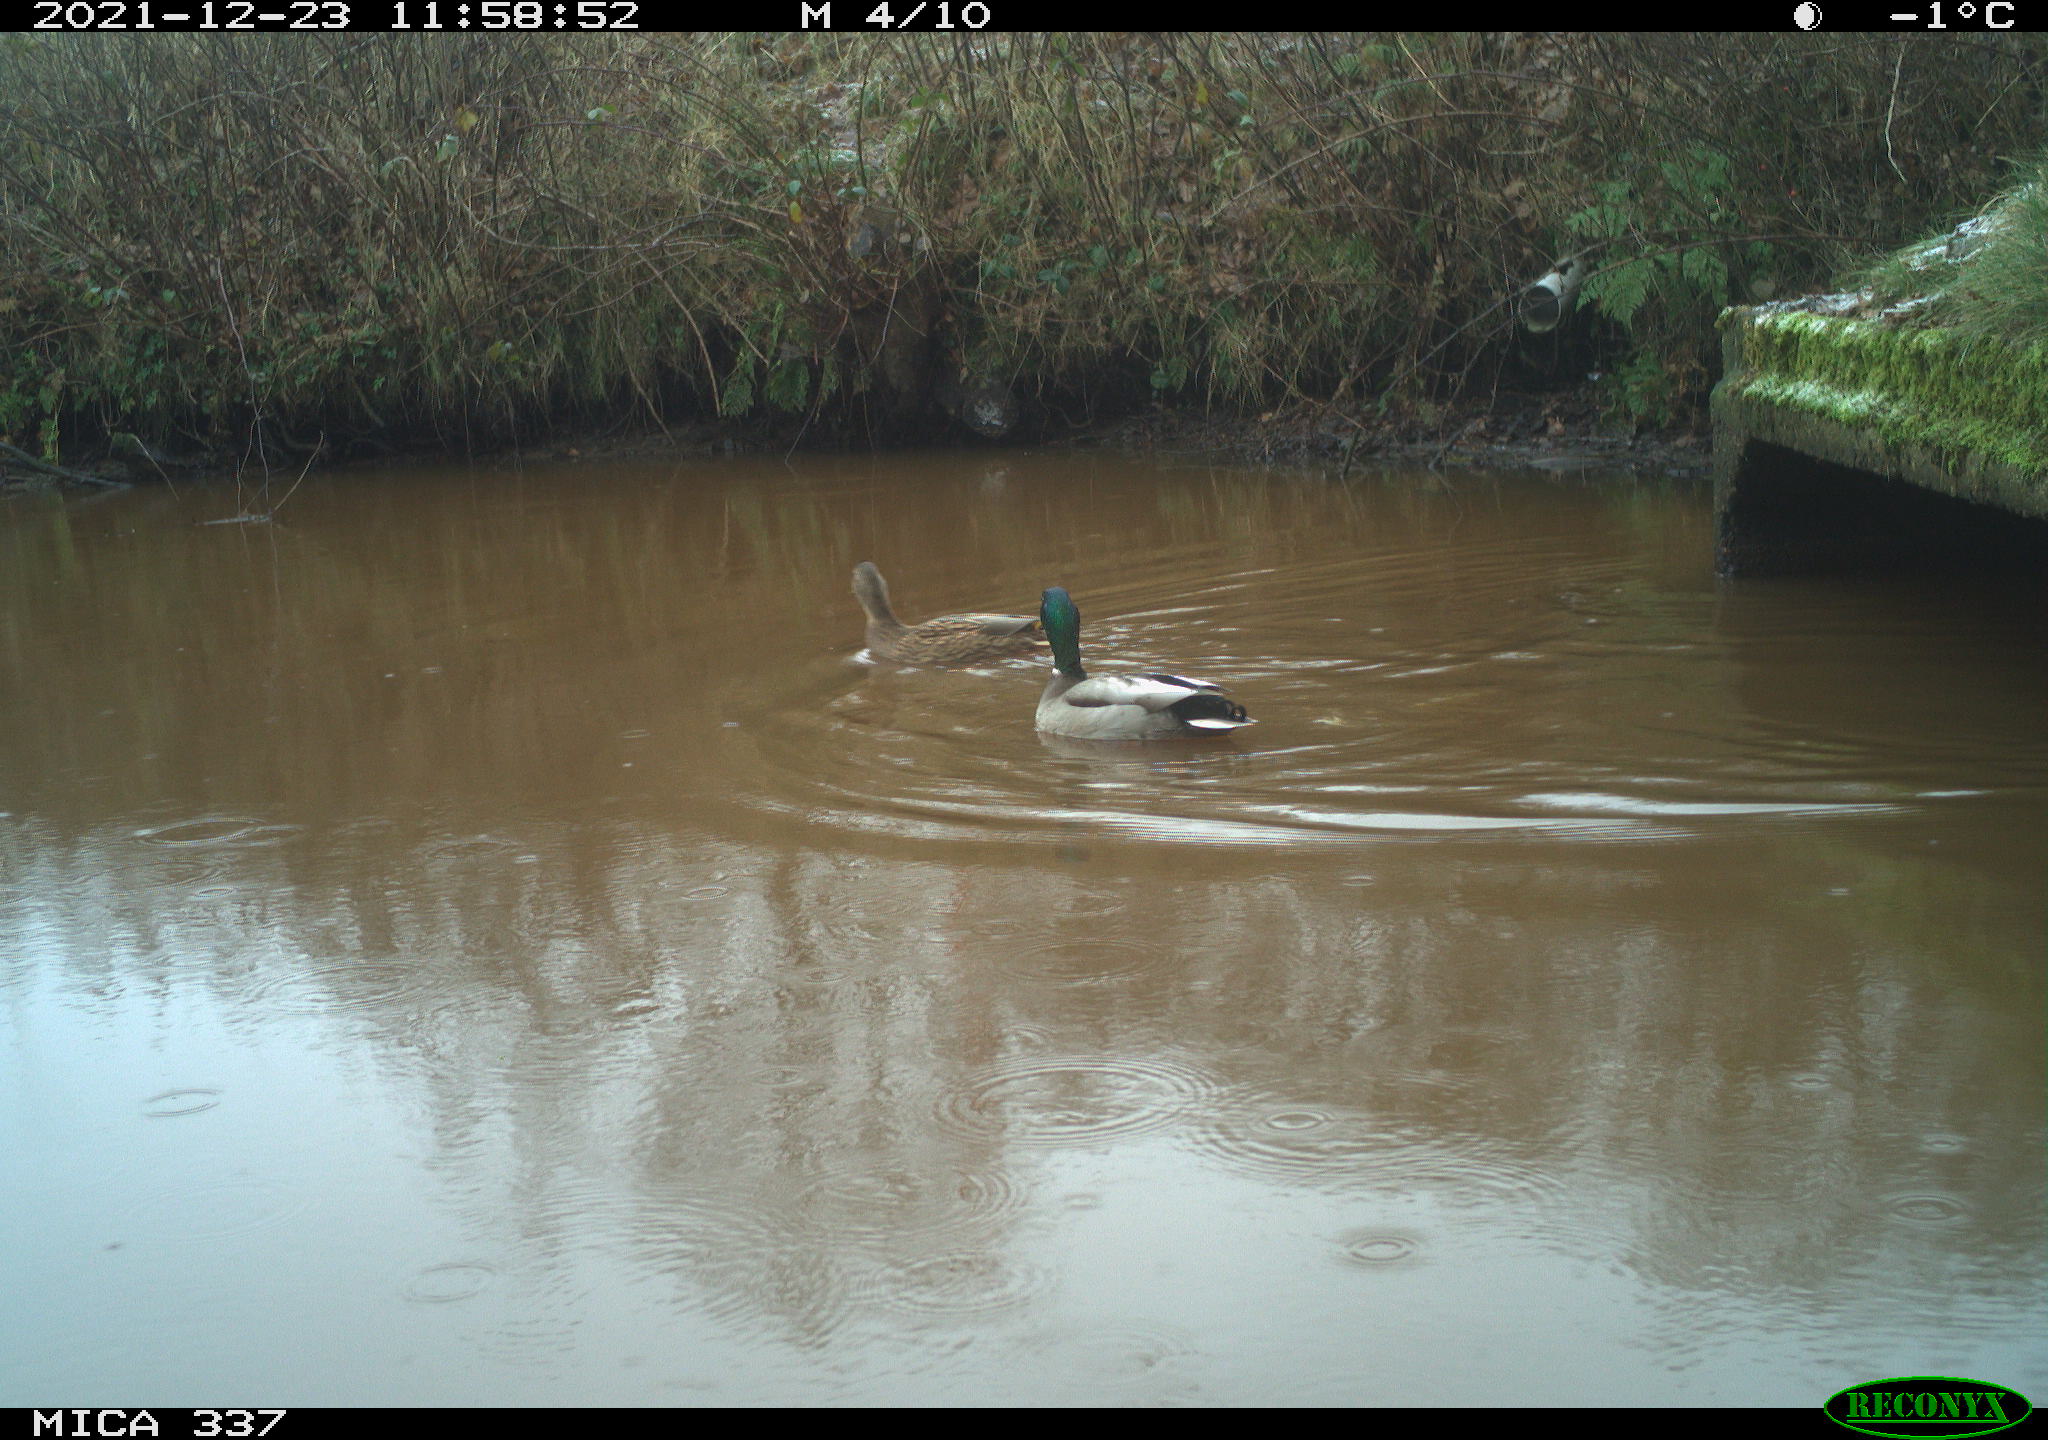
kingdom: Animalia
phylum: Chordata
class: Aves
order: Anseriformes
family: Anatidae
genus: Anas
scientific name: Anas platyrhynchos
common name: Mallard
